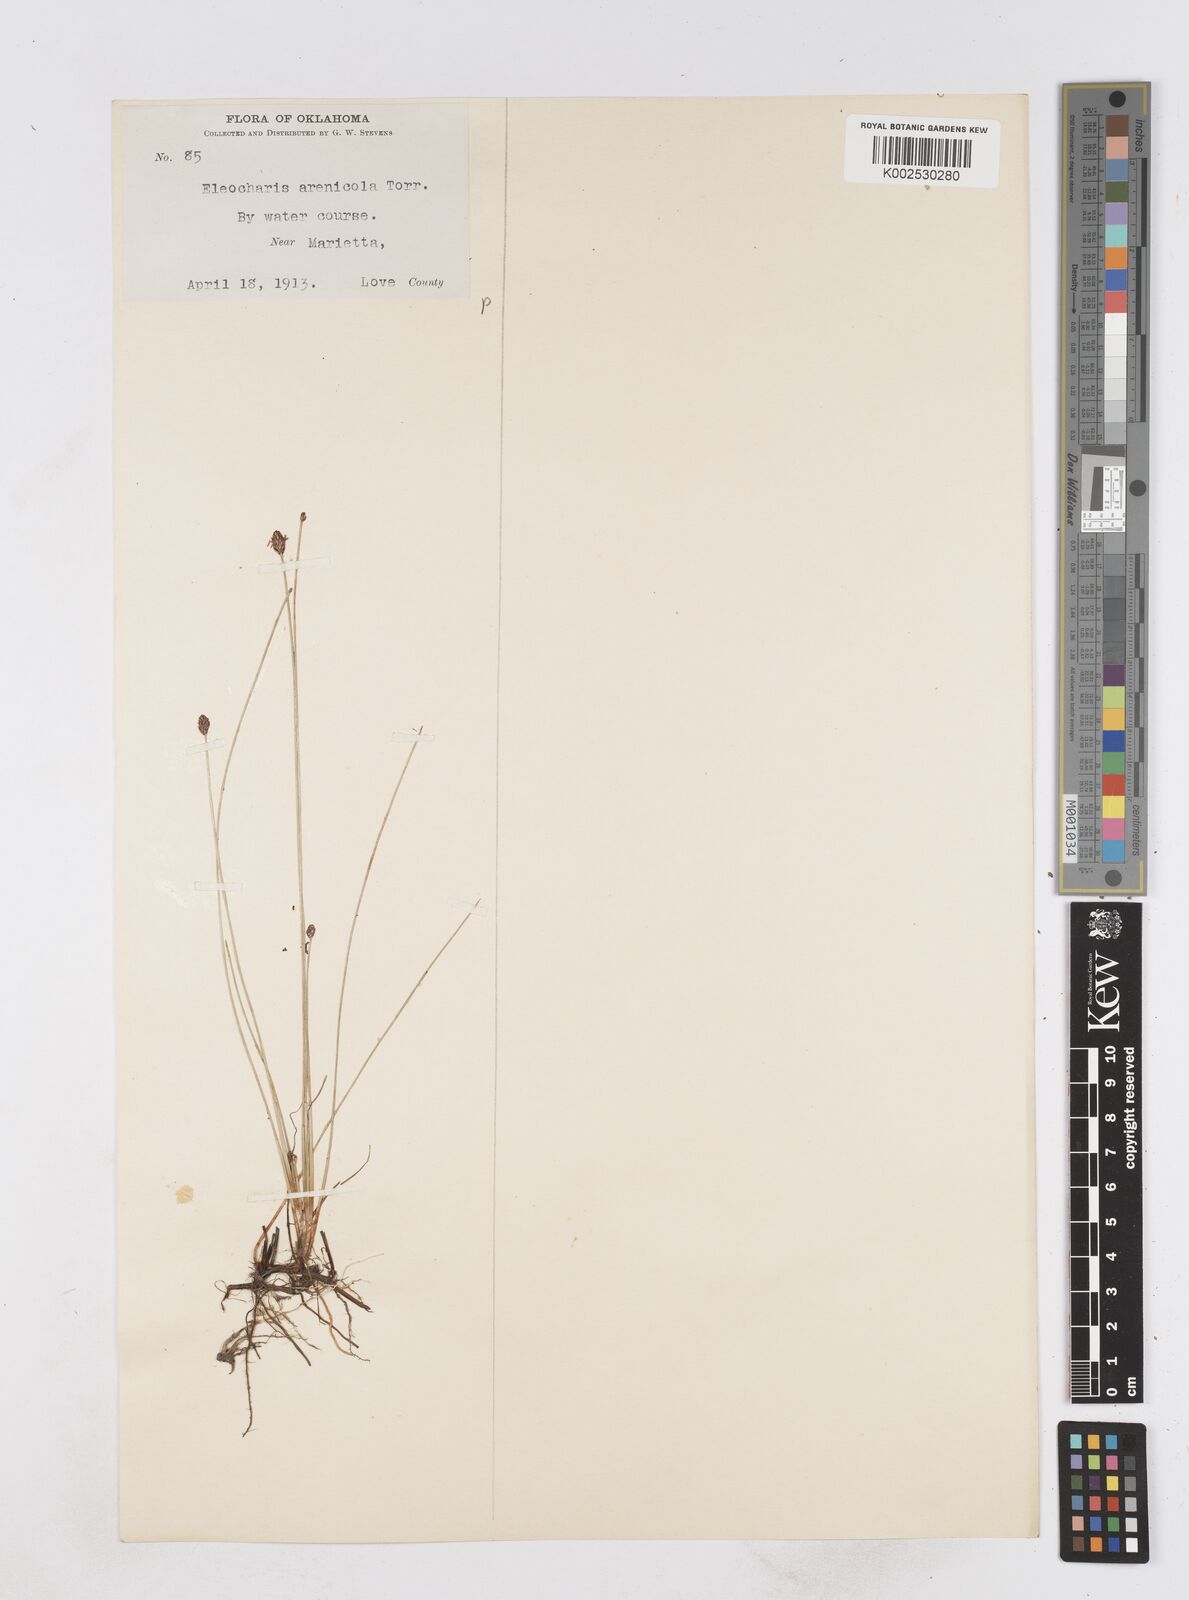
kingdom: Plantae
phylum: Tracheophyta
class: Liliopsida
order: Poales
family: Cyperaceae
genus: Eleocharis
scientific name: Eleocharis montevidensis
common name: Sand spike-rush
